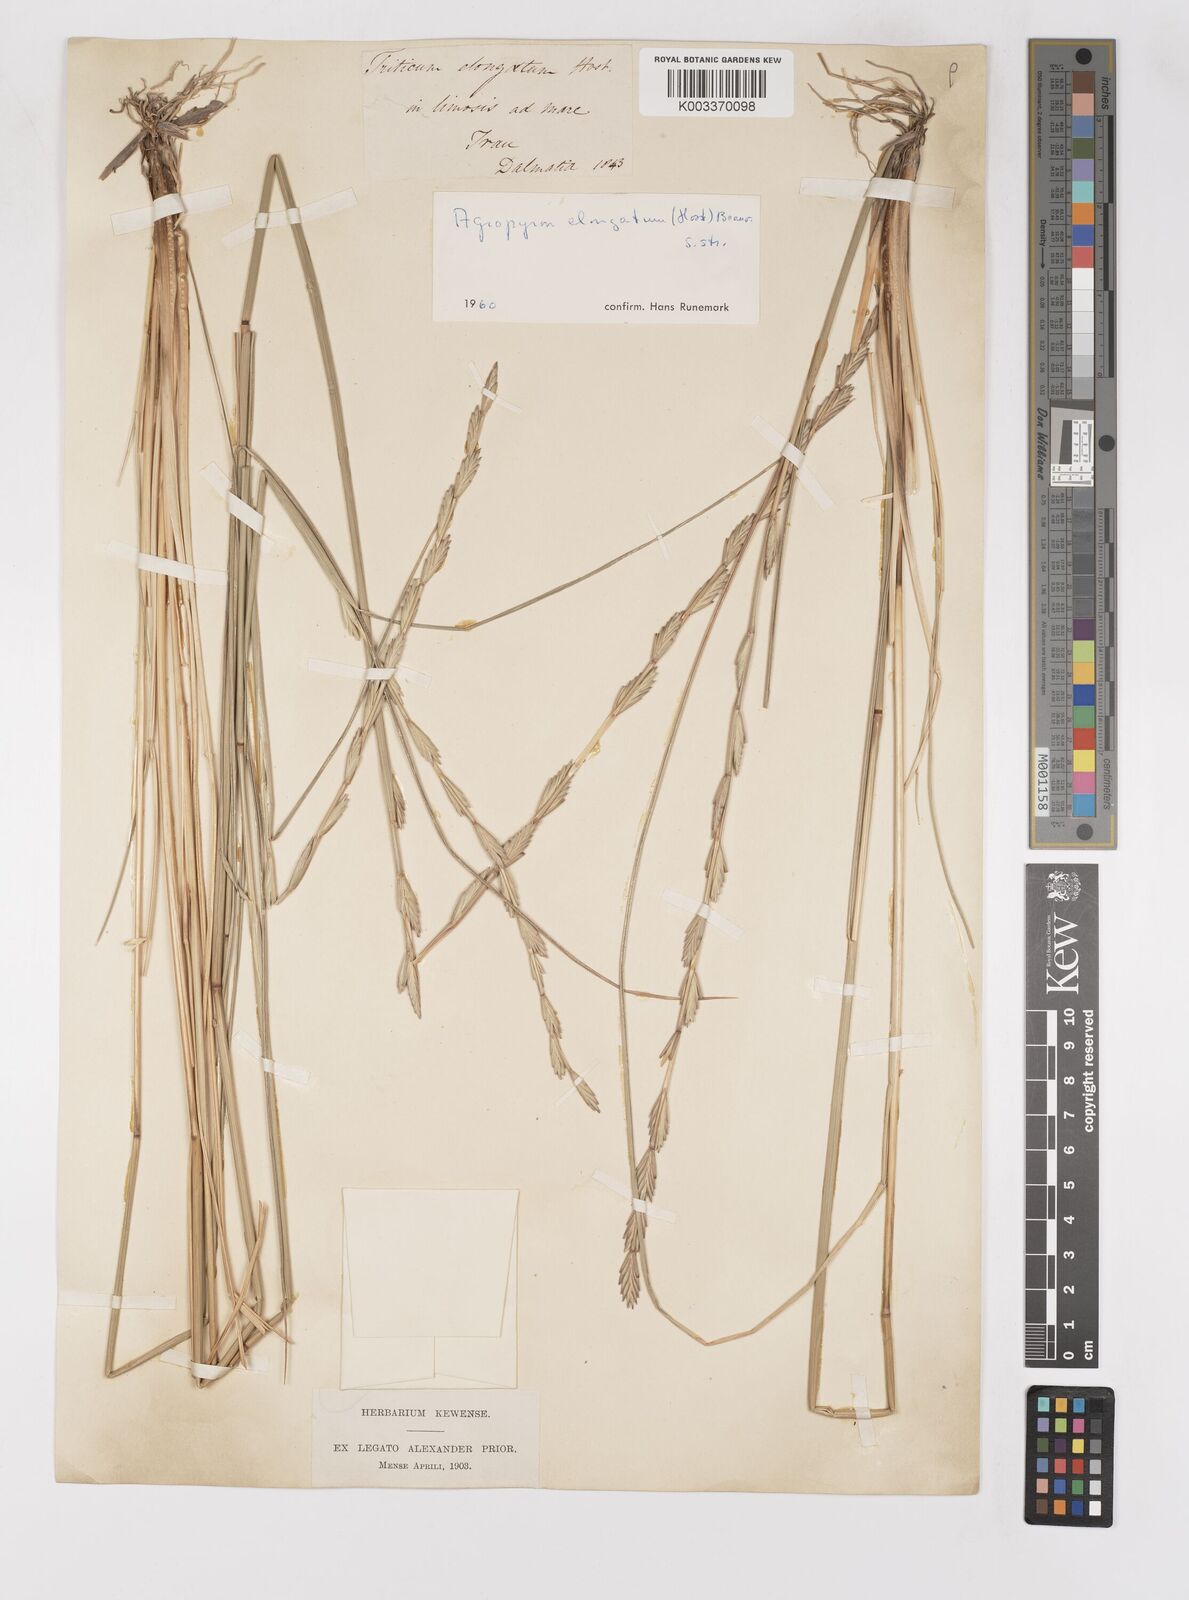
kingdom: Plantae
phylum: Tracheophyta
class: Liliopsida
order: Poales
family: Poaceae
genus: Thinopyrum
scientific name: Thinopyrum elongatum
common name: Tall wheatgrass
